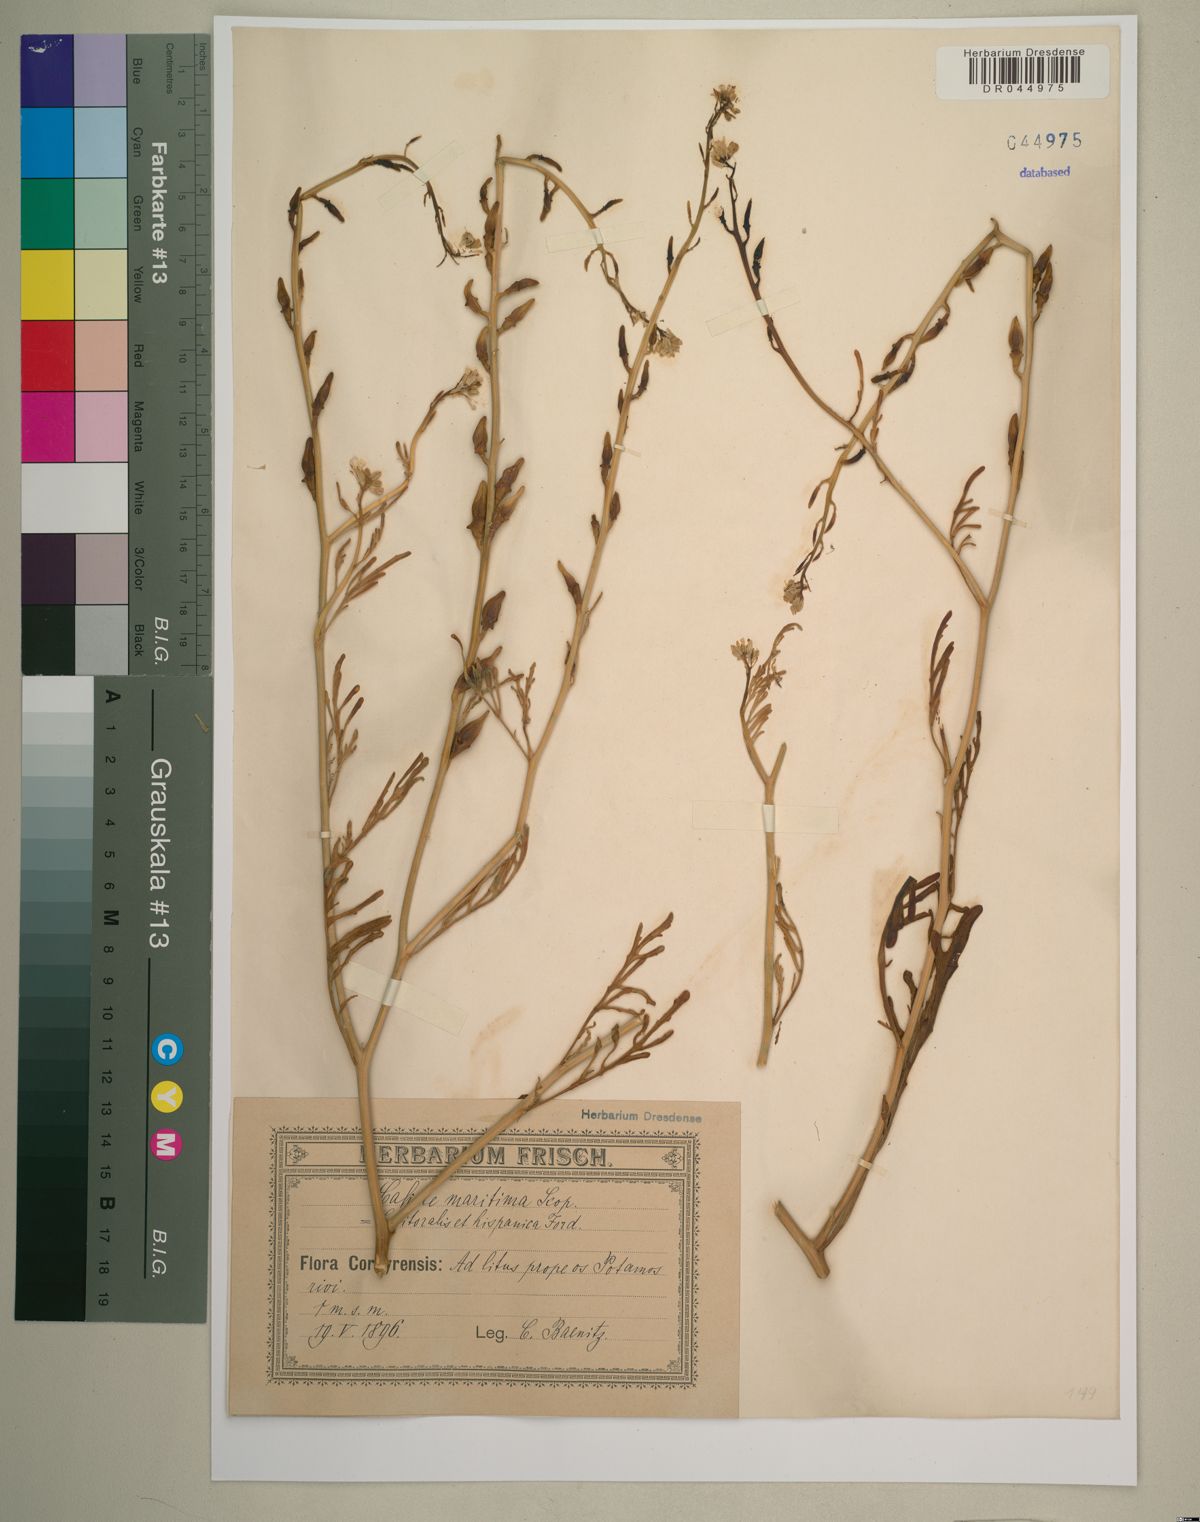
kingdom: Plantae
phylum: Tracheophyta
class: Magnoliopsida
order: Brassicales
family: Brassicaceae
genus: Cakile
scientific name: Cakile maritima
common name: Sea rocket
